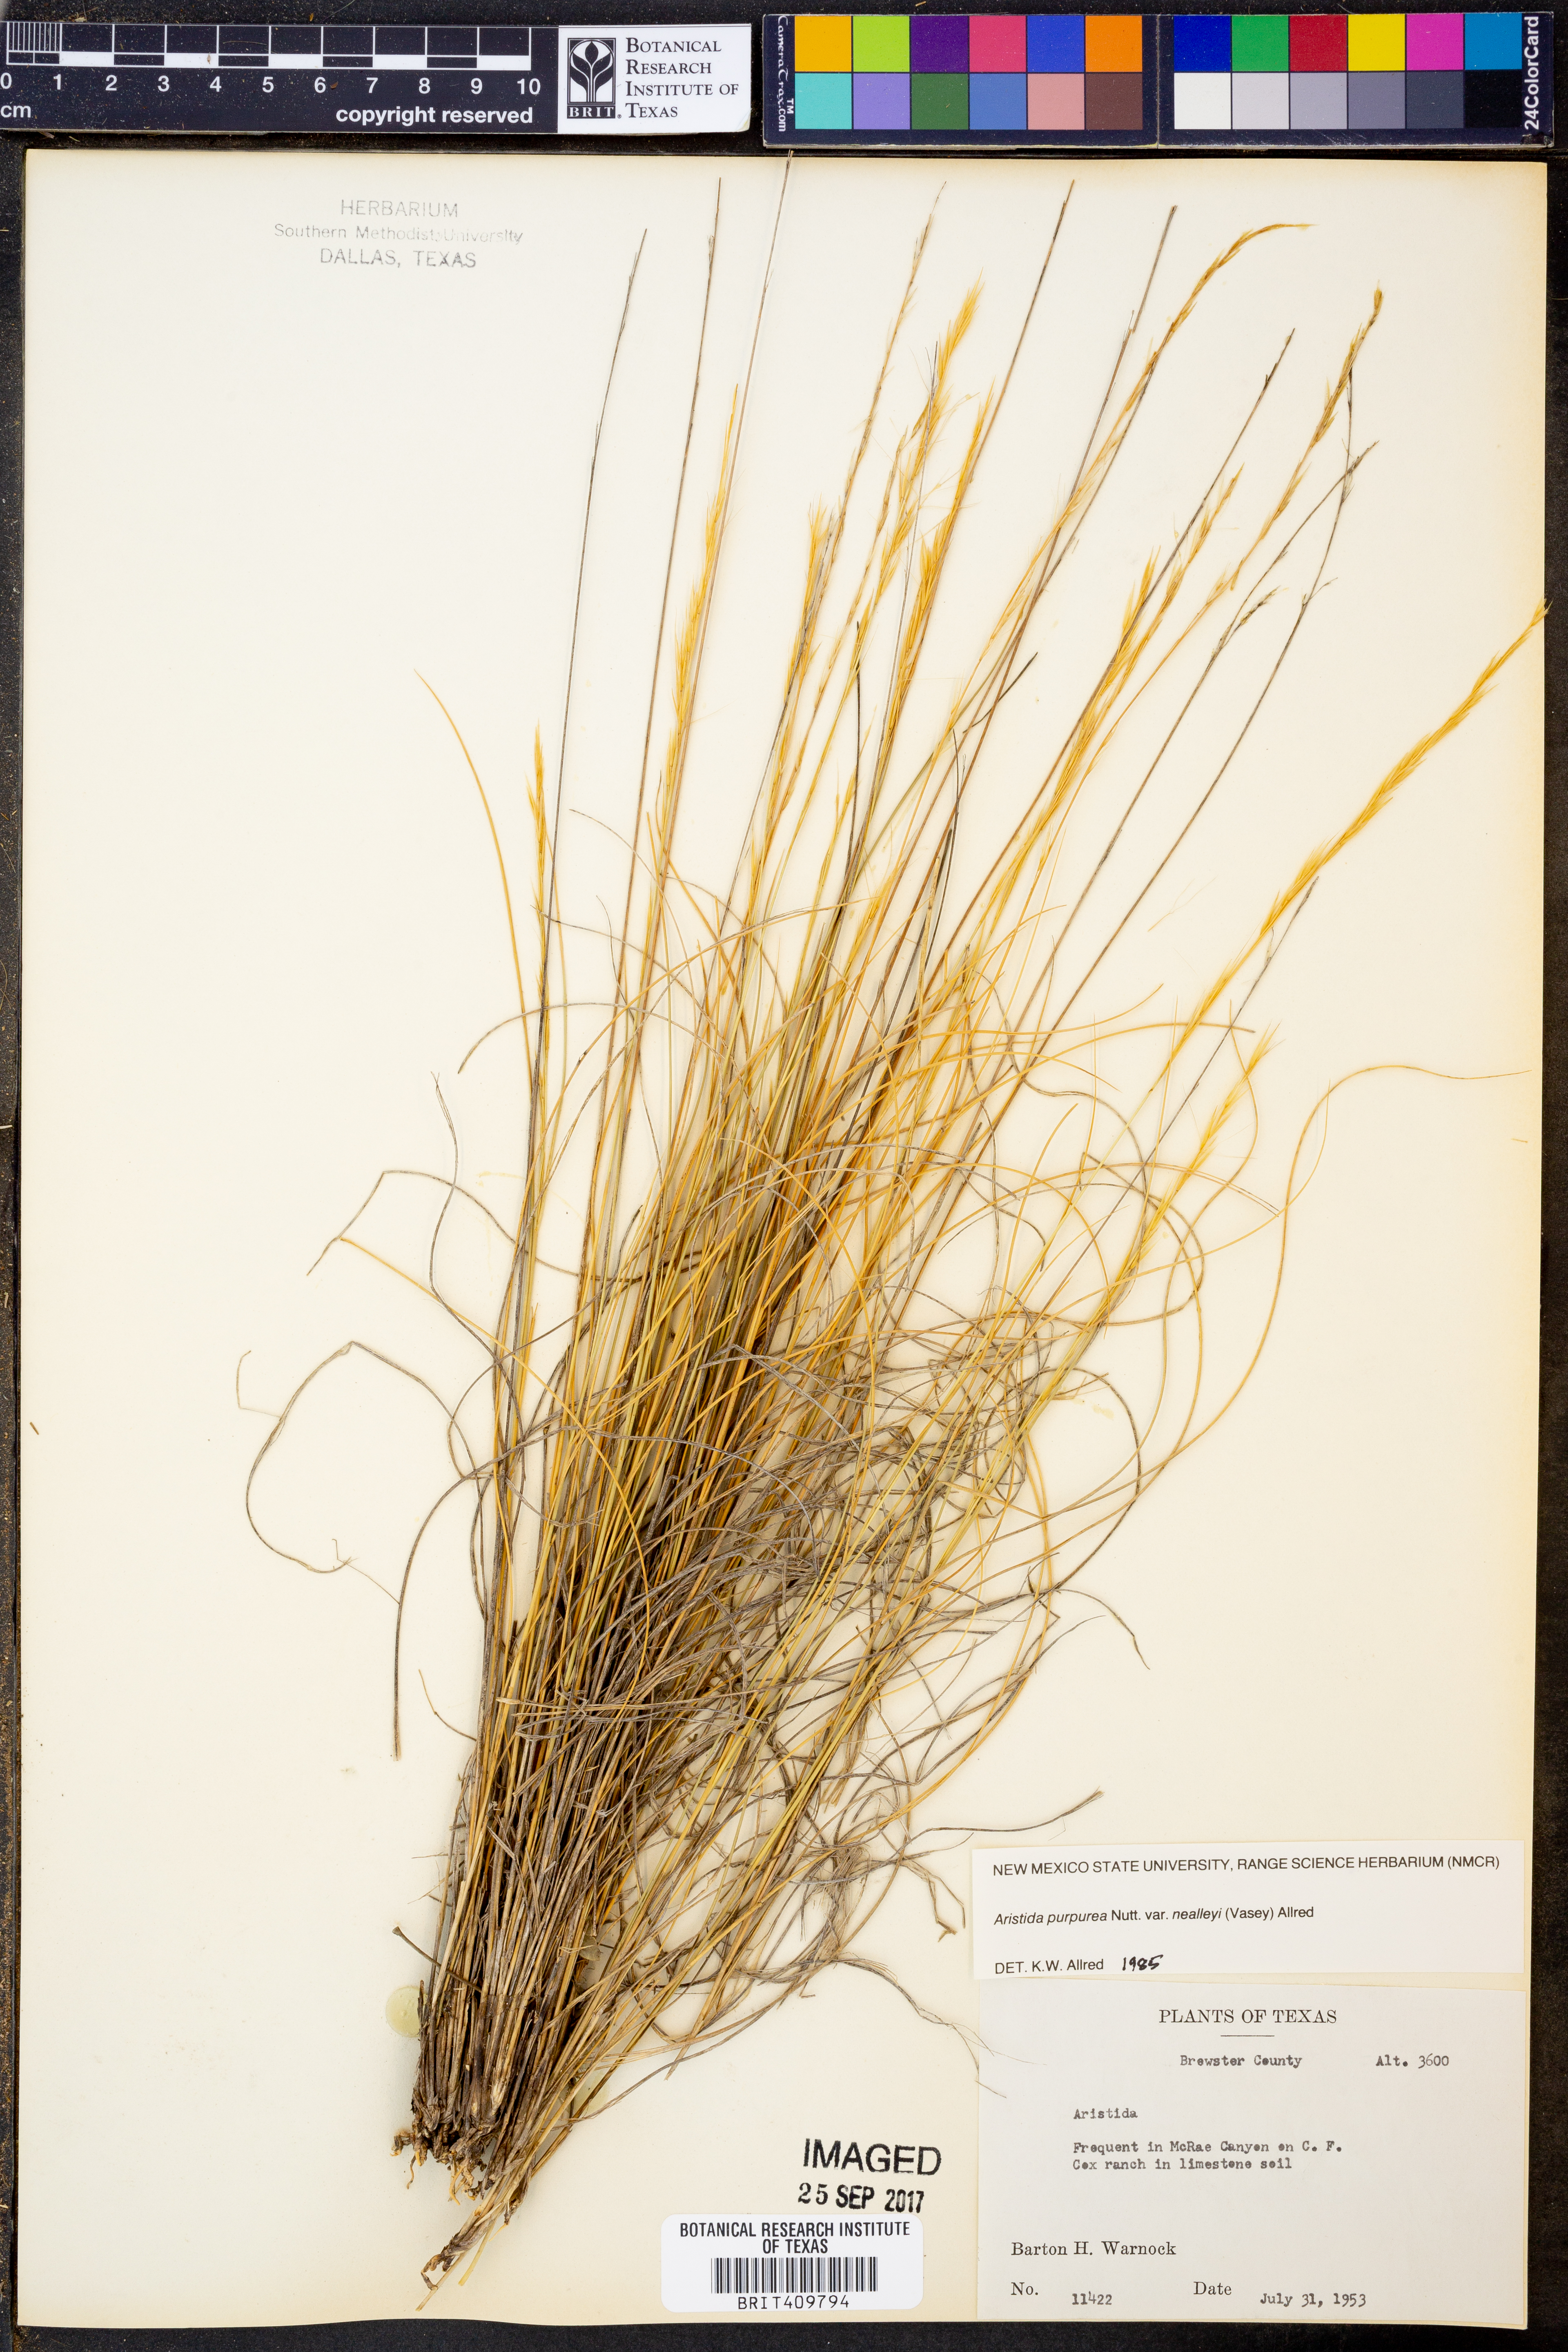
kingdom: Plantae
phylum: Tracheophyta
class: Liliopsida
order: Poales
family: Poaceae
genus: Aristida
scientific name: Aristida glauca
